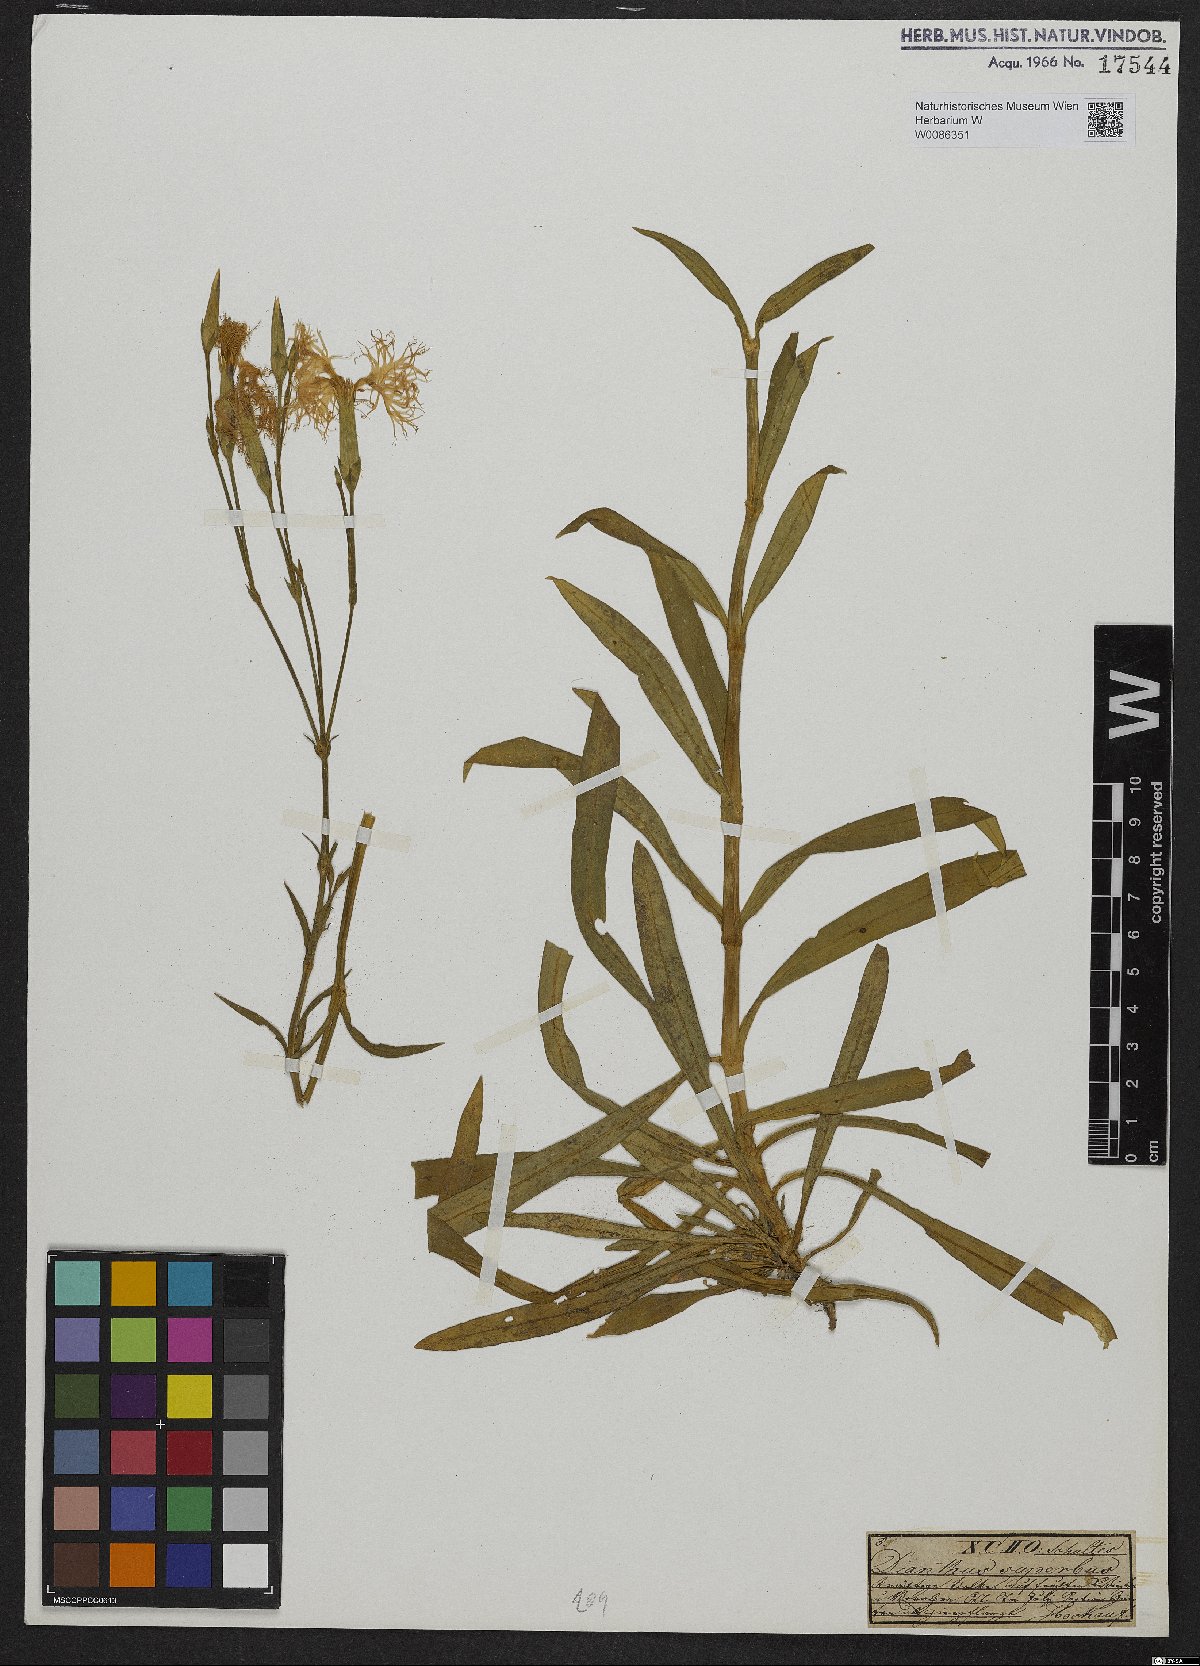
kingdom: Plantae
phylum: Tracheophyta
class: Magnoliopsida
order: Caryophyllales
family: Caryophyllaceae
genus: Dianthus
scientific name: Dianthus superbus
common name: Fringed pink
